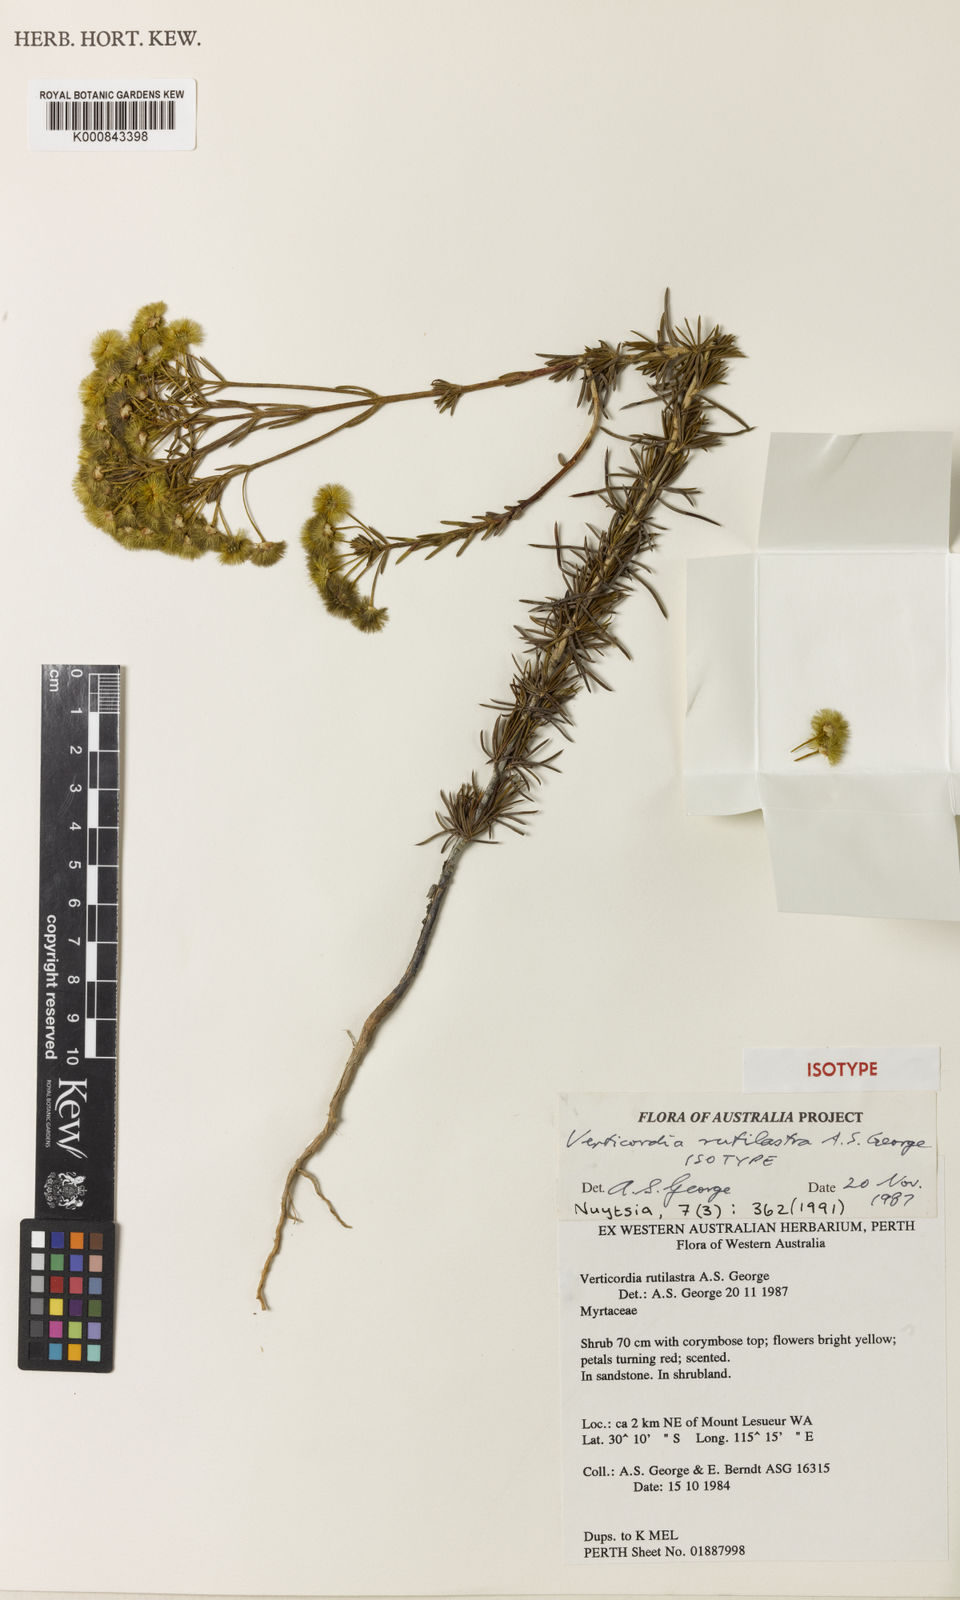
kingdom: Plantae
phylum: Tracheophyta
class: Magnoliopsida
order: Myrtales
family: Myrtaceae
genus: Verticordia
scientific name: Verticordia rutilastra
